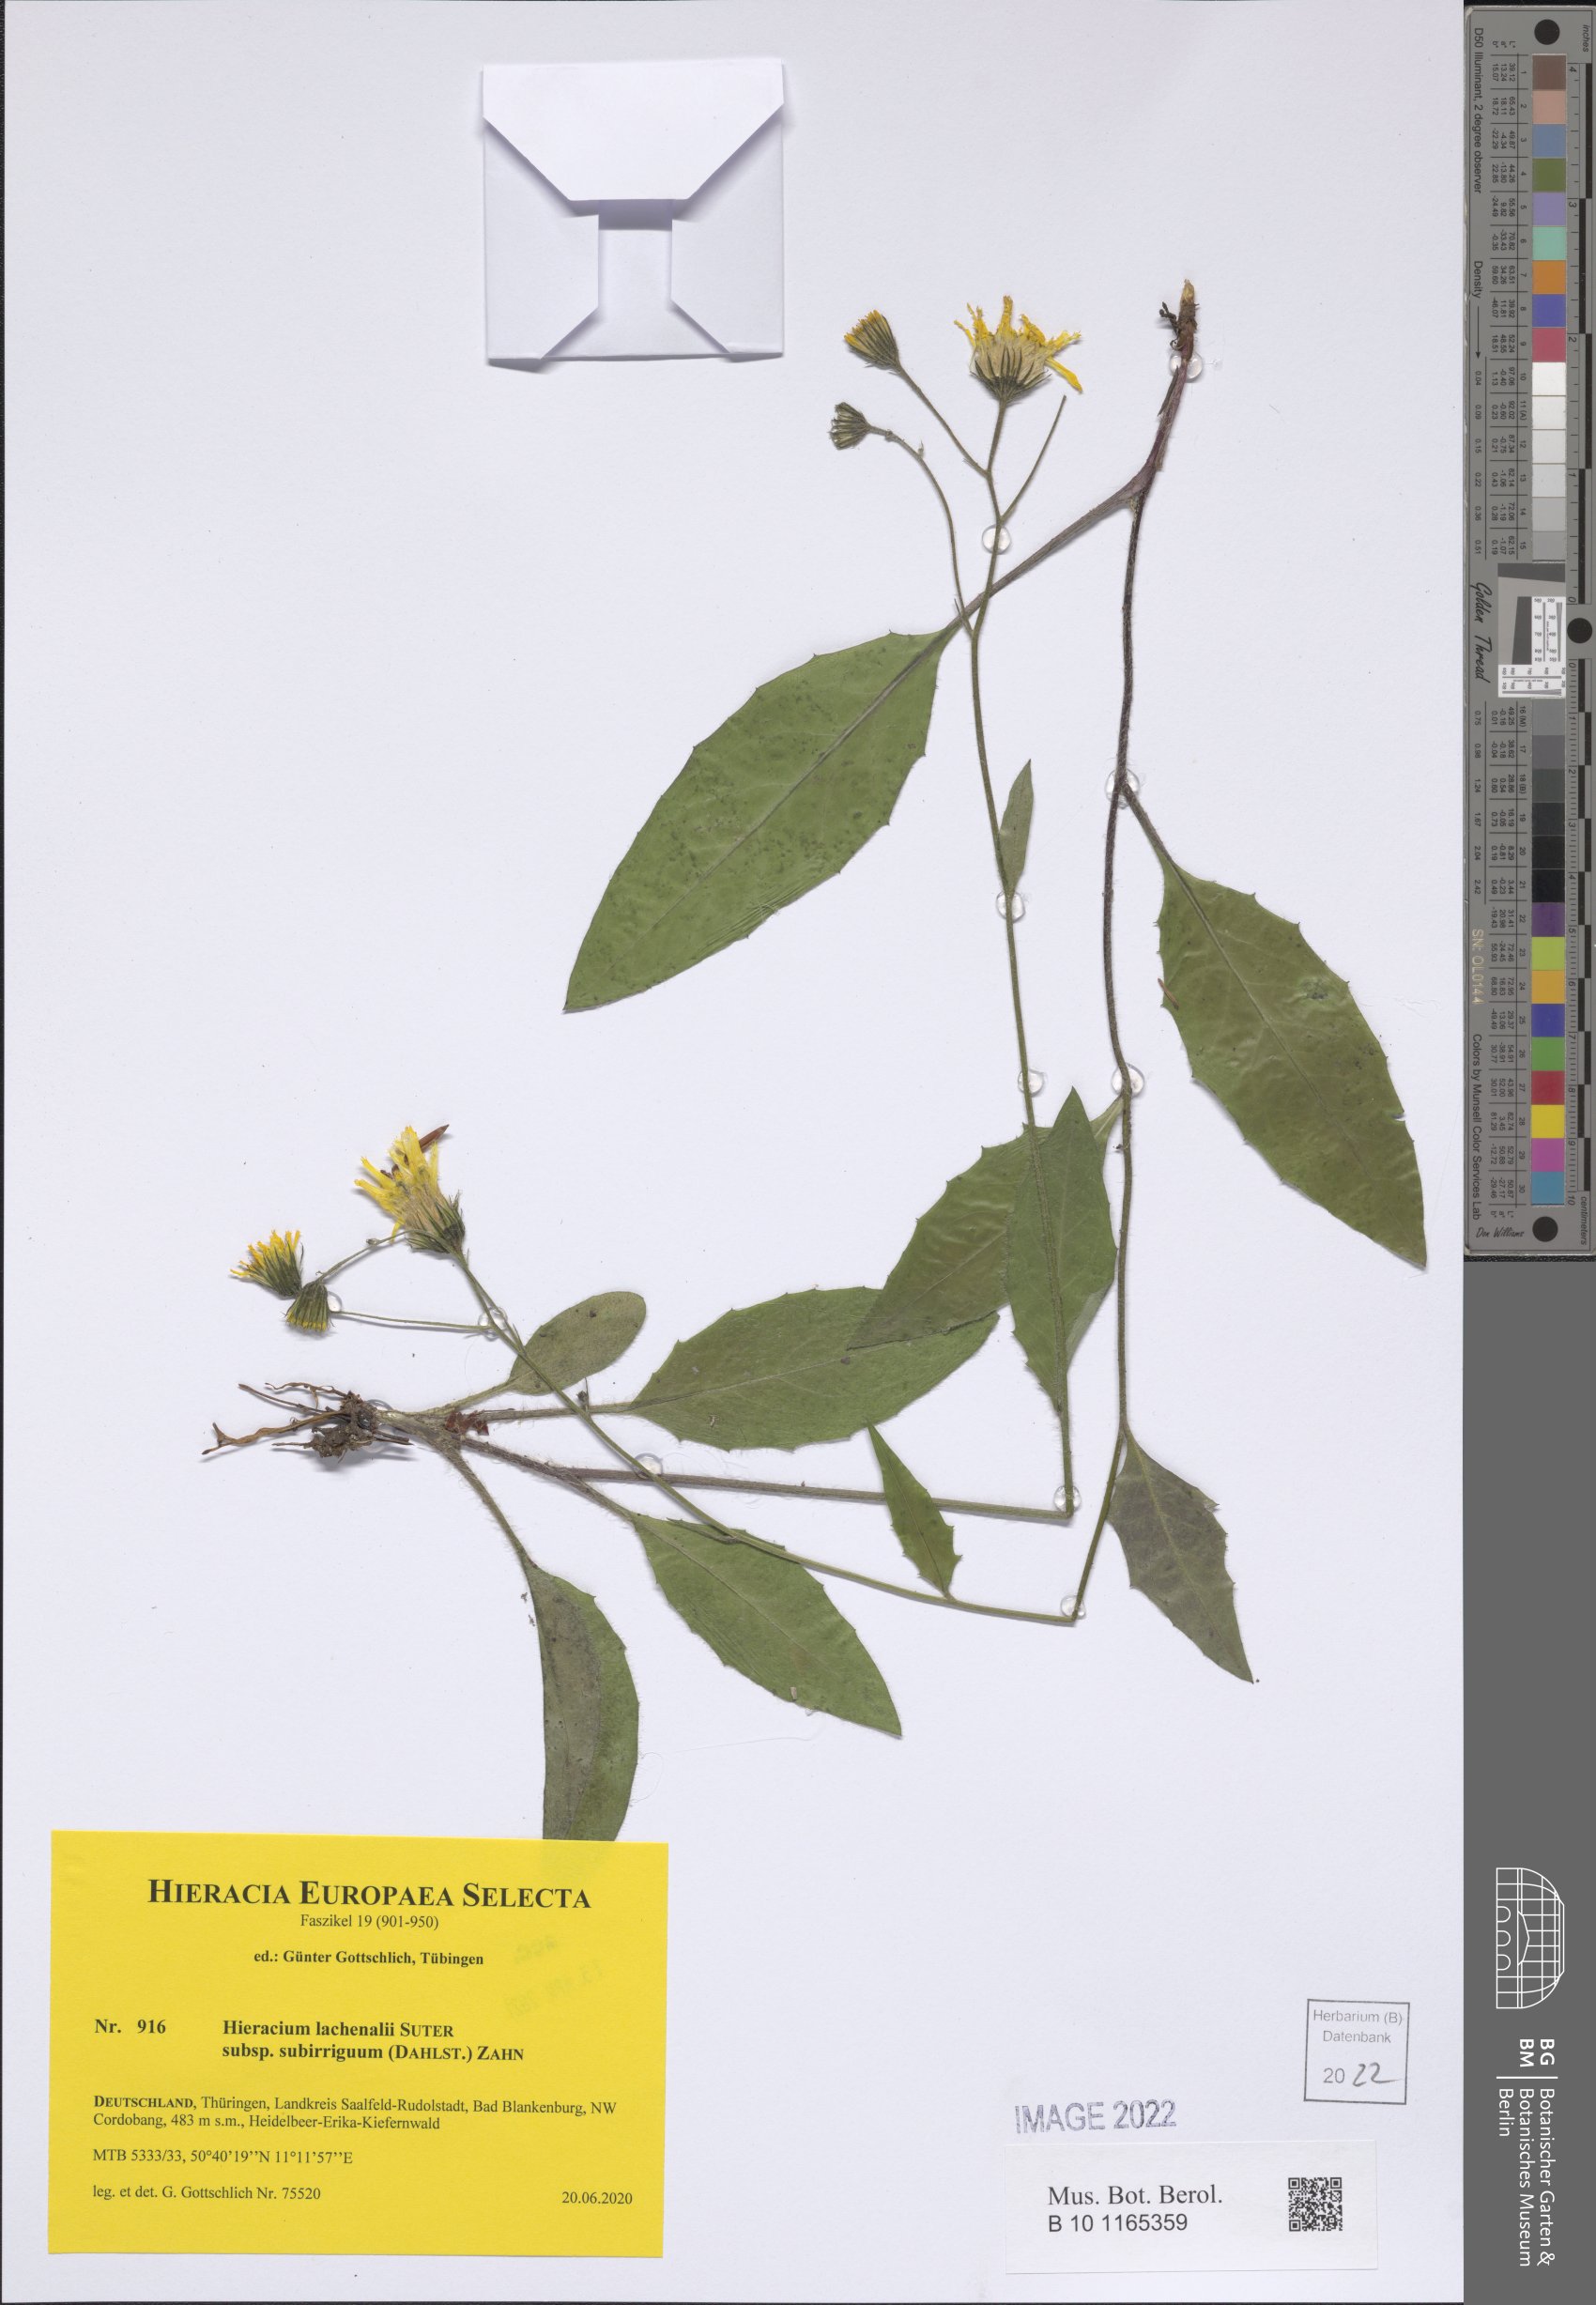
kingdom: Plantae
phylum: Tracheophyta
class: Magnoliopsida
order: Asterales
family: Asteraceae
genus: Hieracium
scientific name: Hieracium lachenalii
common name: Common hawkweed
